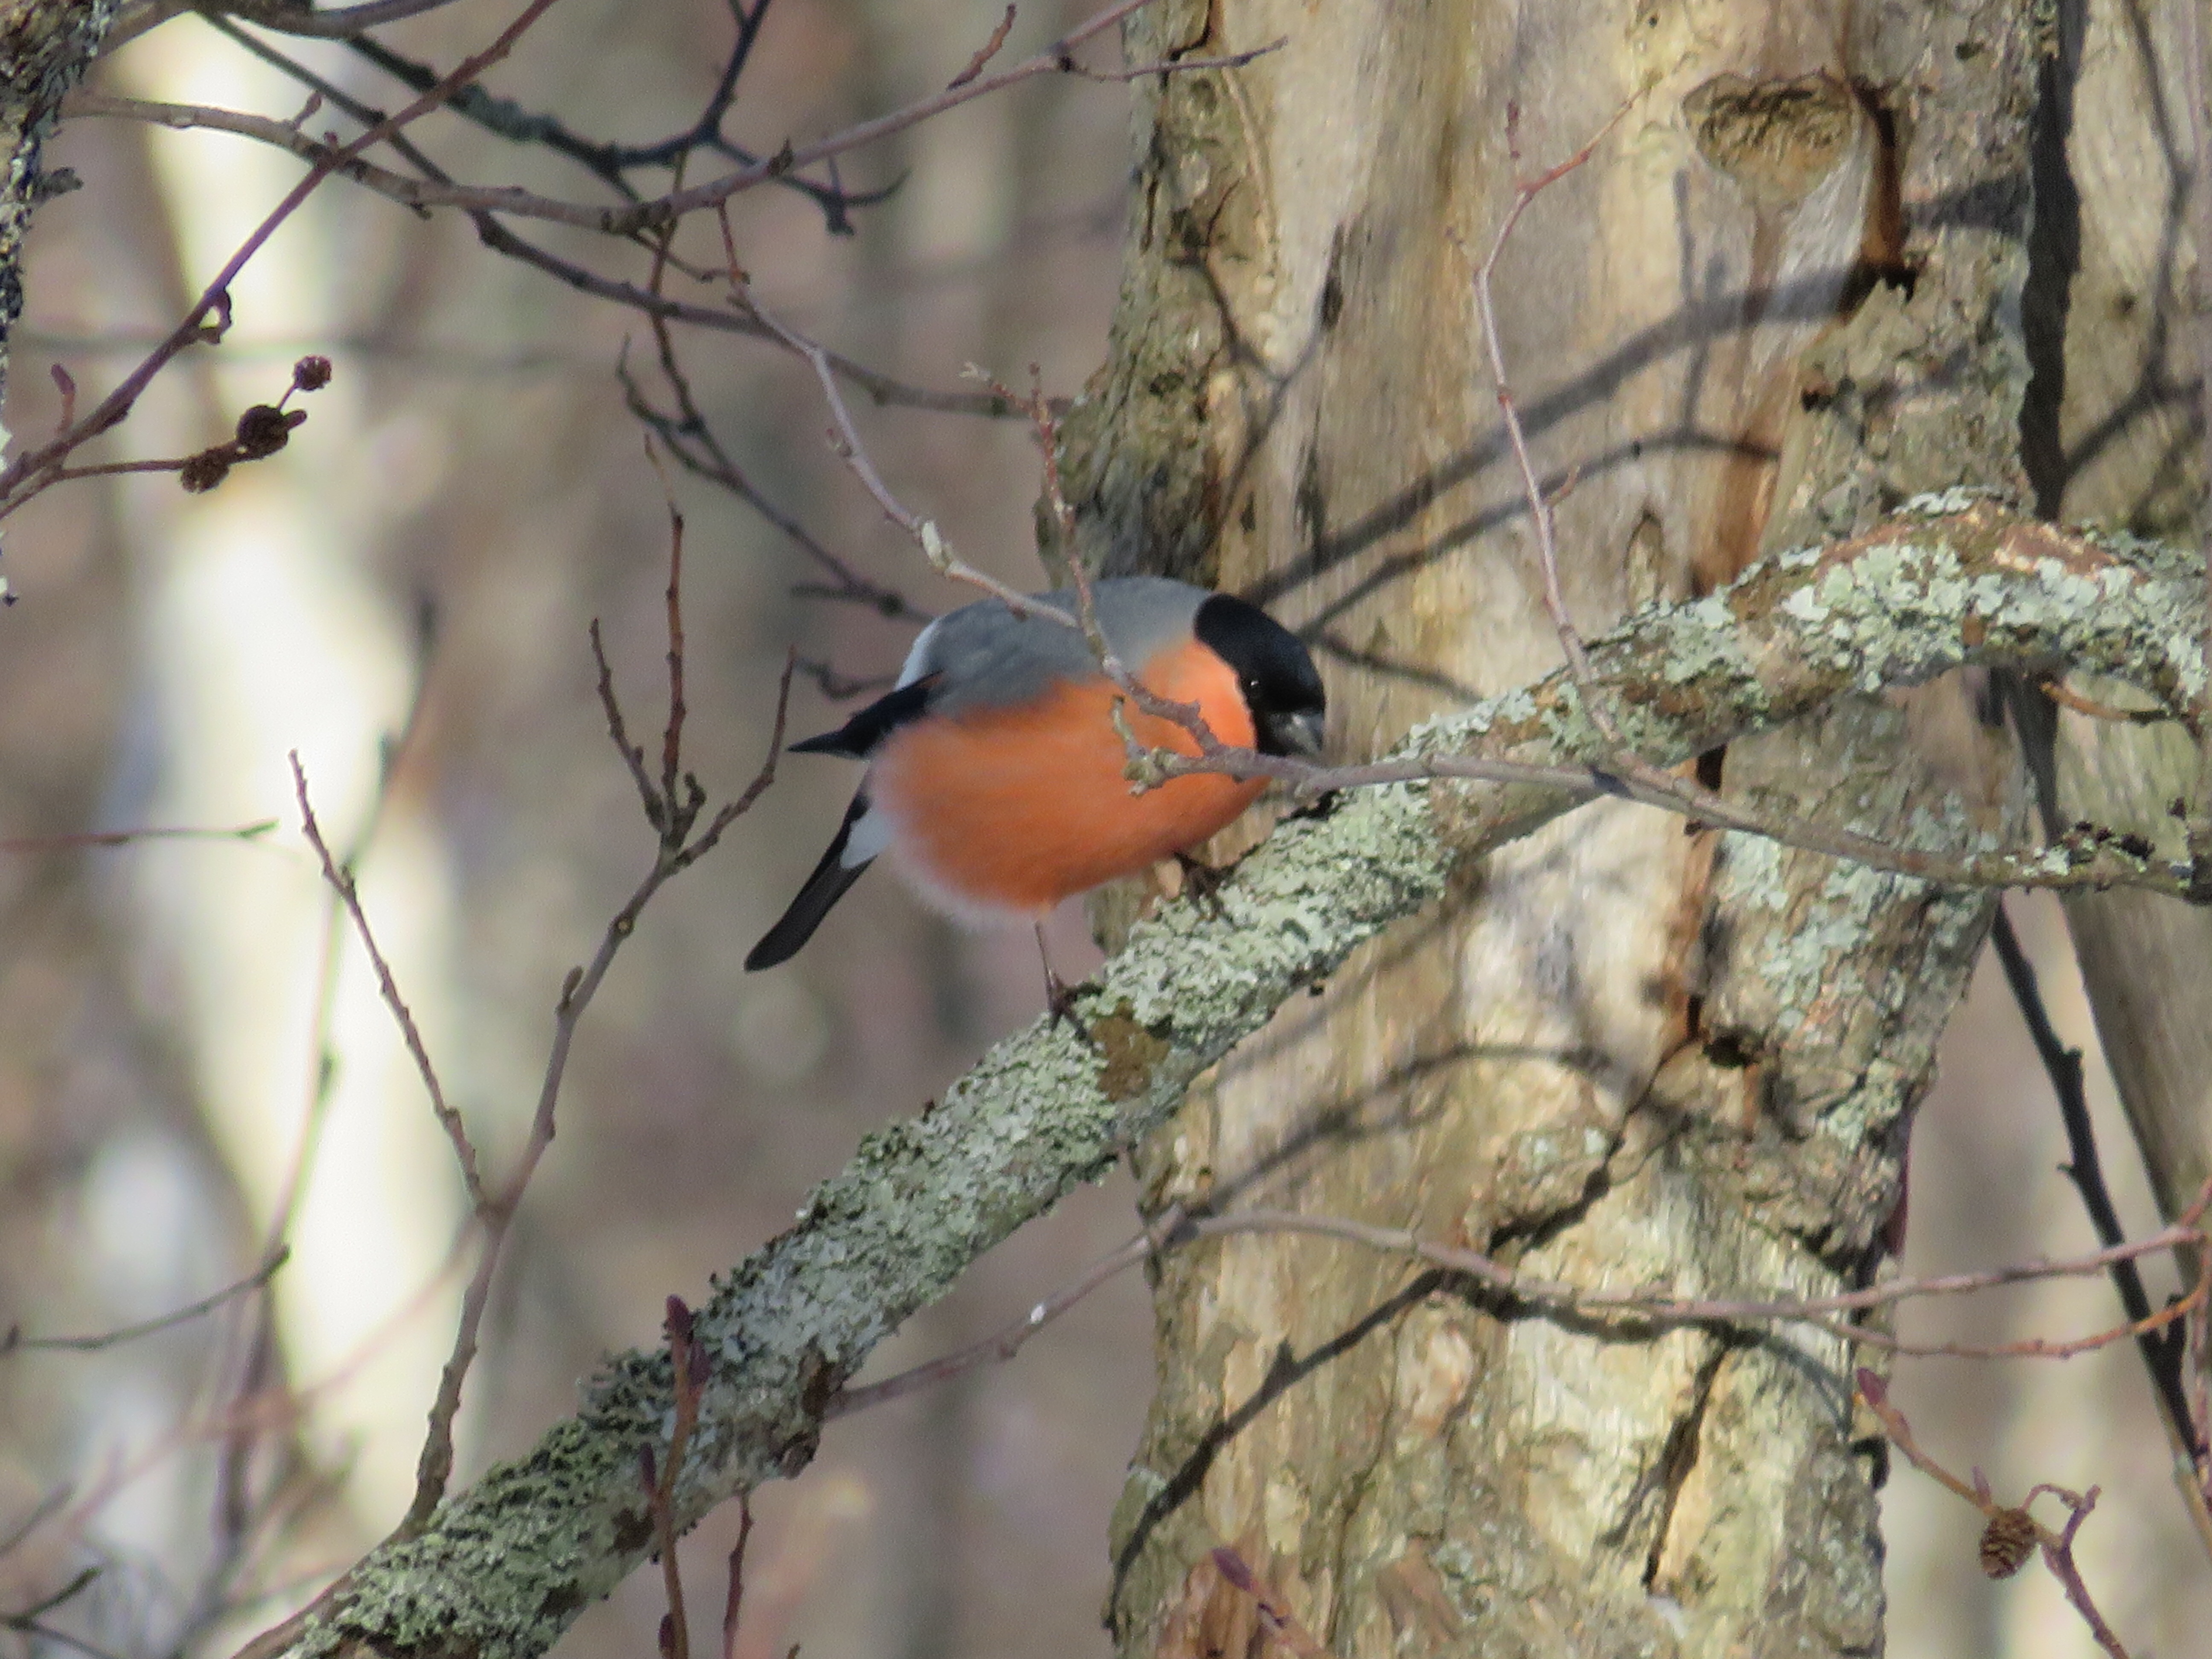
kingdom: Animalia
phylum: Chordata
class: Aves
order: Passeriformes
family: Fringillidae
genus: Pyrrhula
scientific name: Pyrrhula pyrrhula
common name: Eurasian bullfinch
